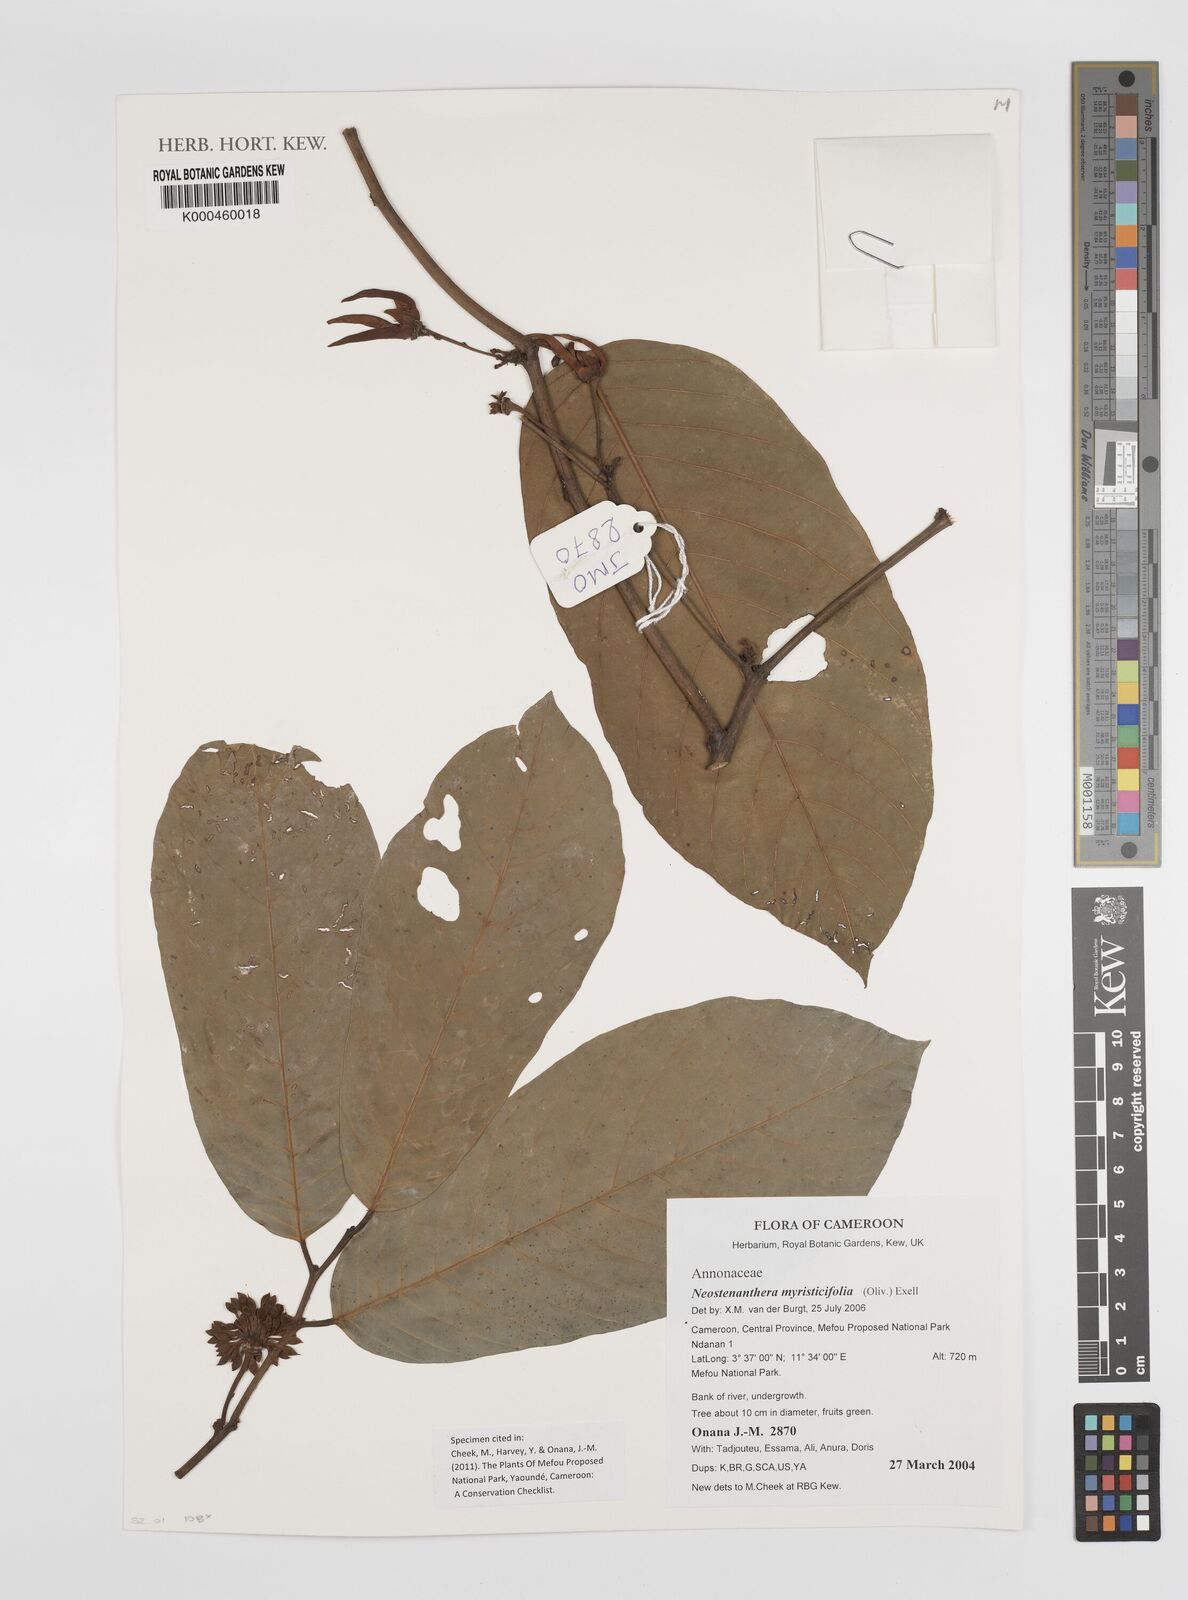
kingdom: Plantae
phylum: Tracheophyta
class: Magnoliopsida
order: Magnoliales
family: Annonaceae
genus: Neostenanthera
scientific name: Neostenanthera myristicifolia
